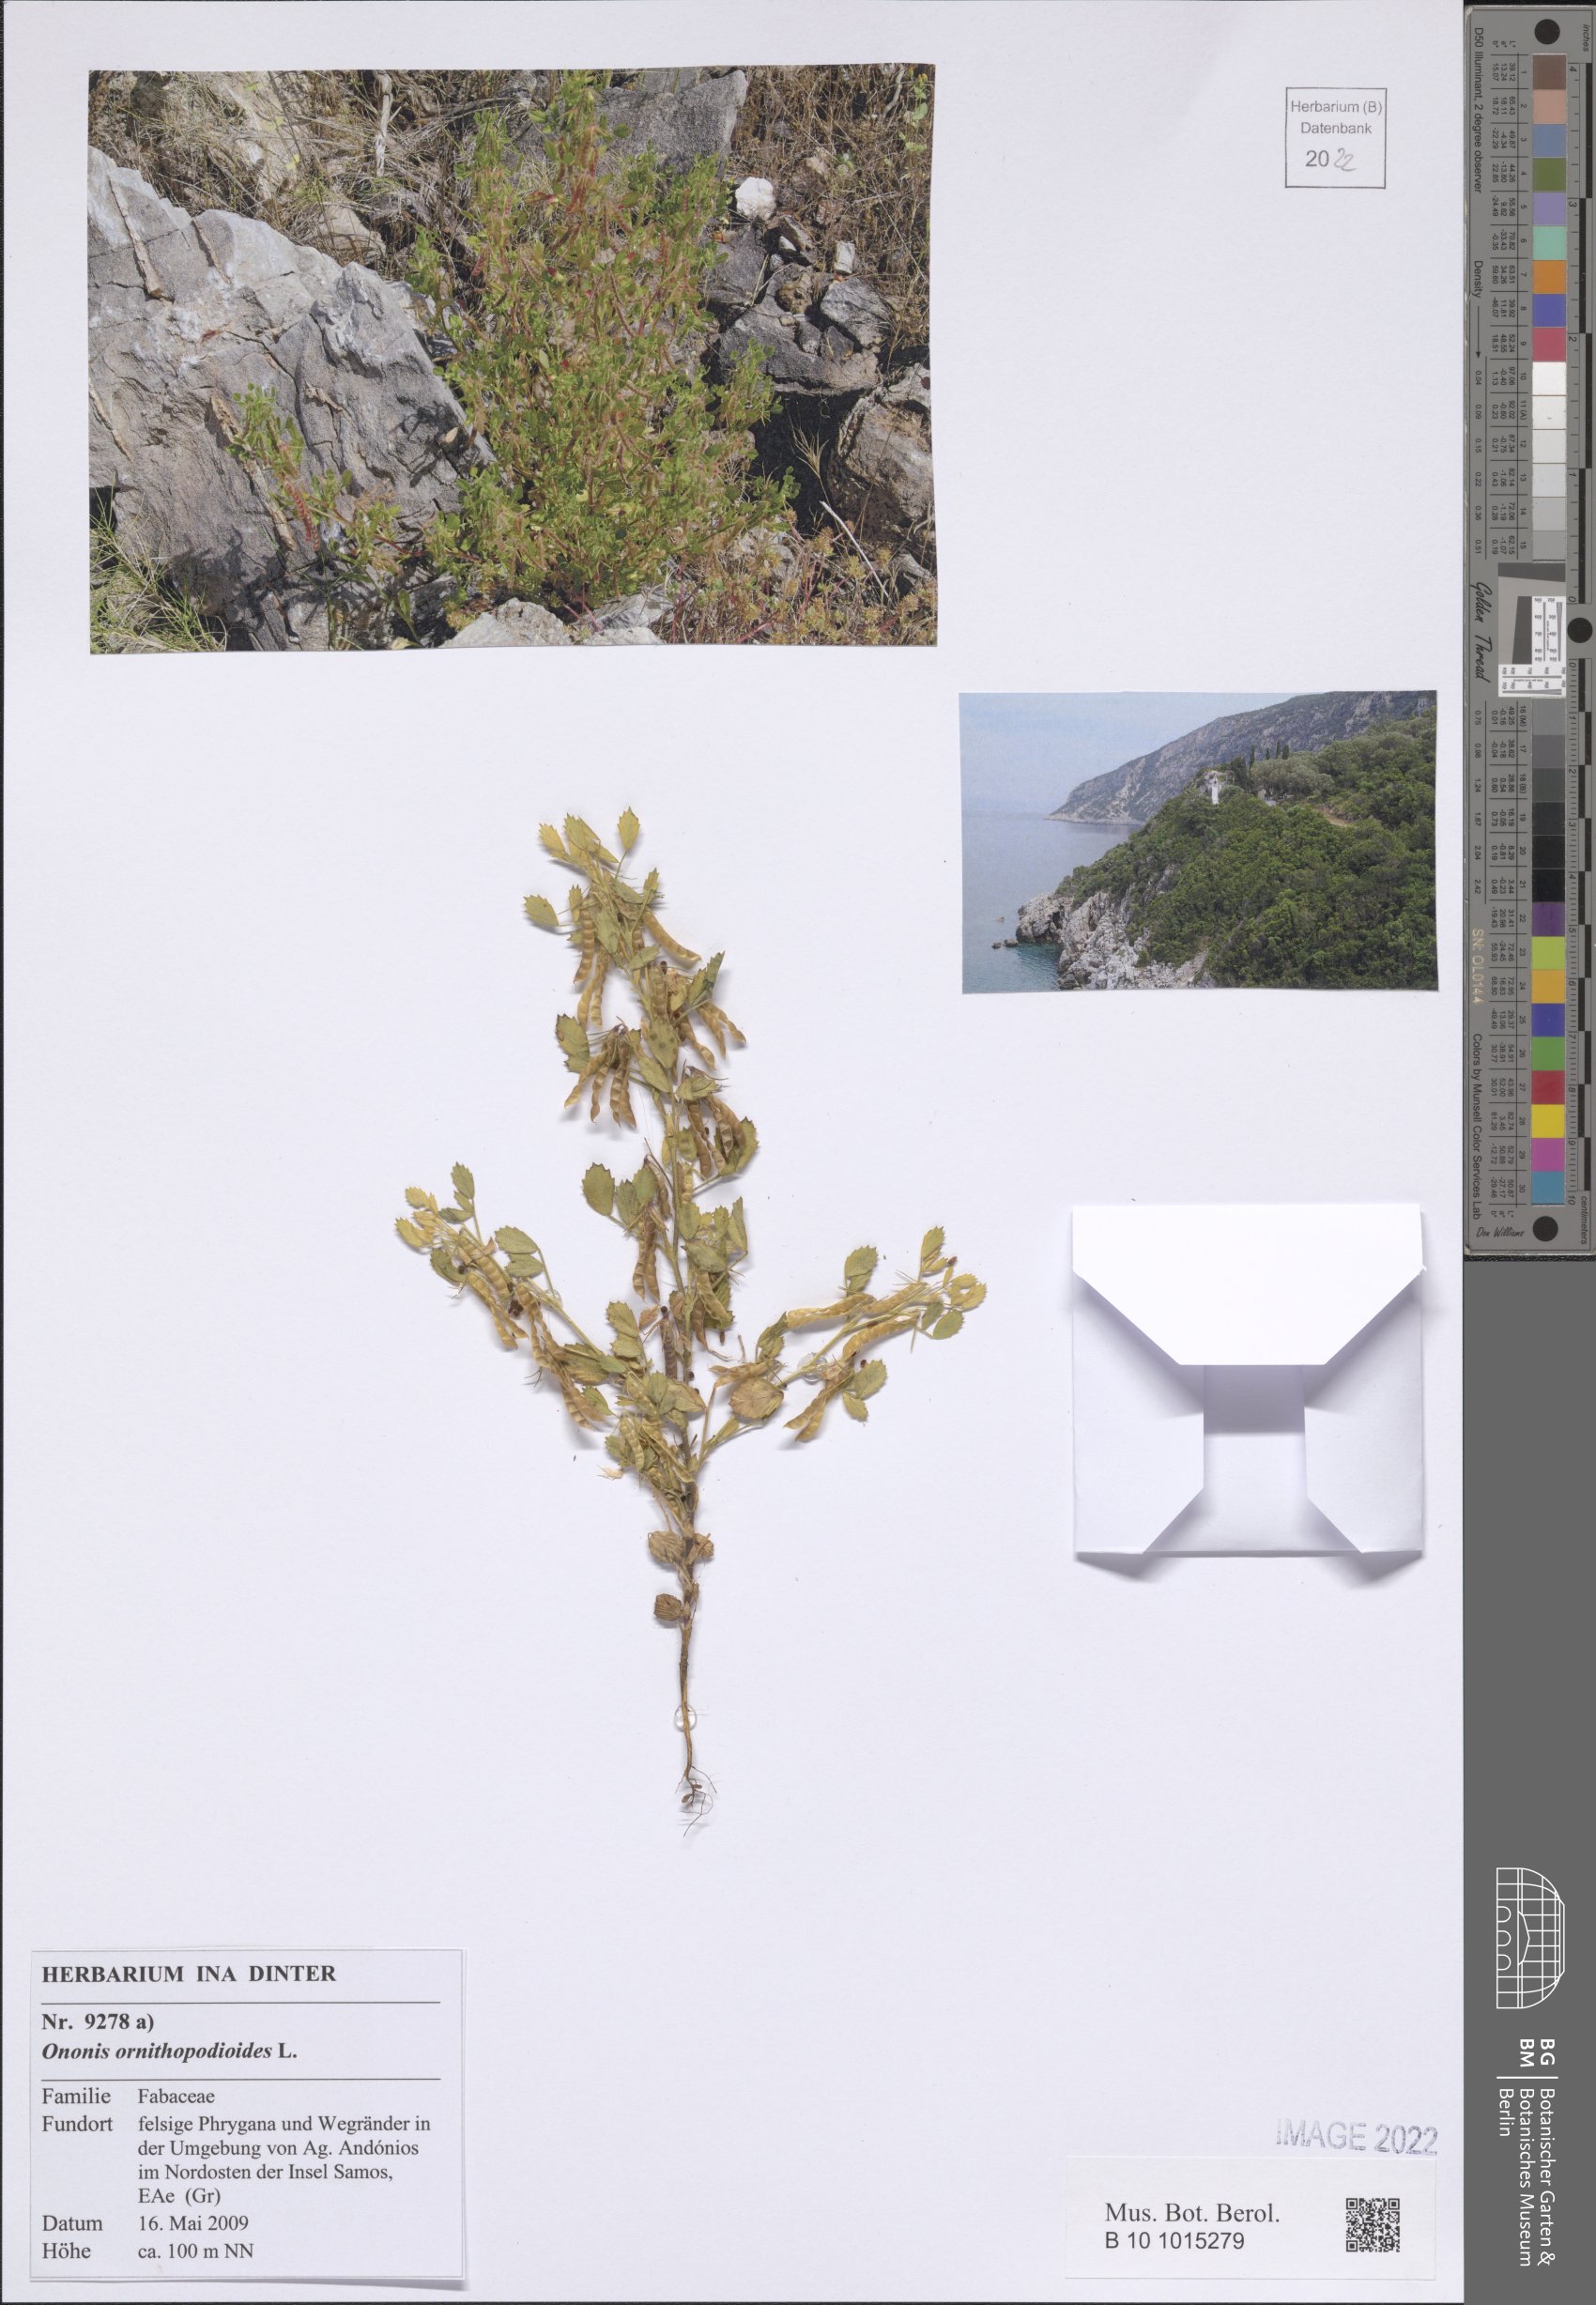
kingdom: Plantae
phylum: Tracheophyta
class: Magnoliopsida
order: Fabales
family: Fabaceae
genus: Ononis
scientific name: Ononis ornithopodioides
